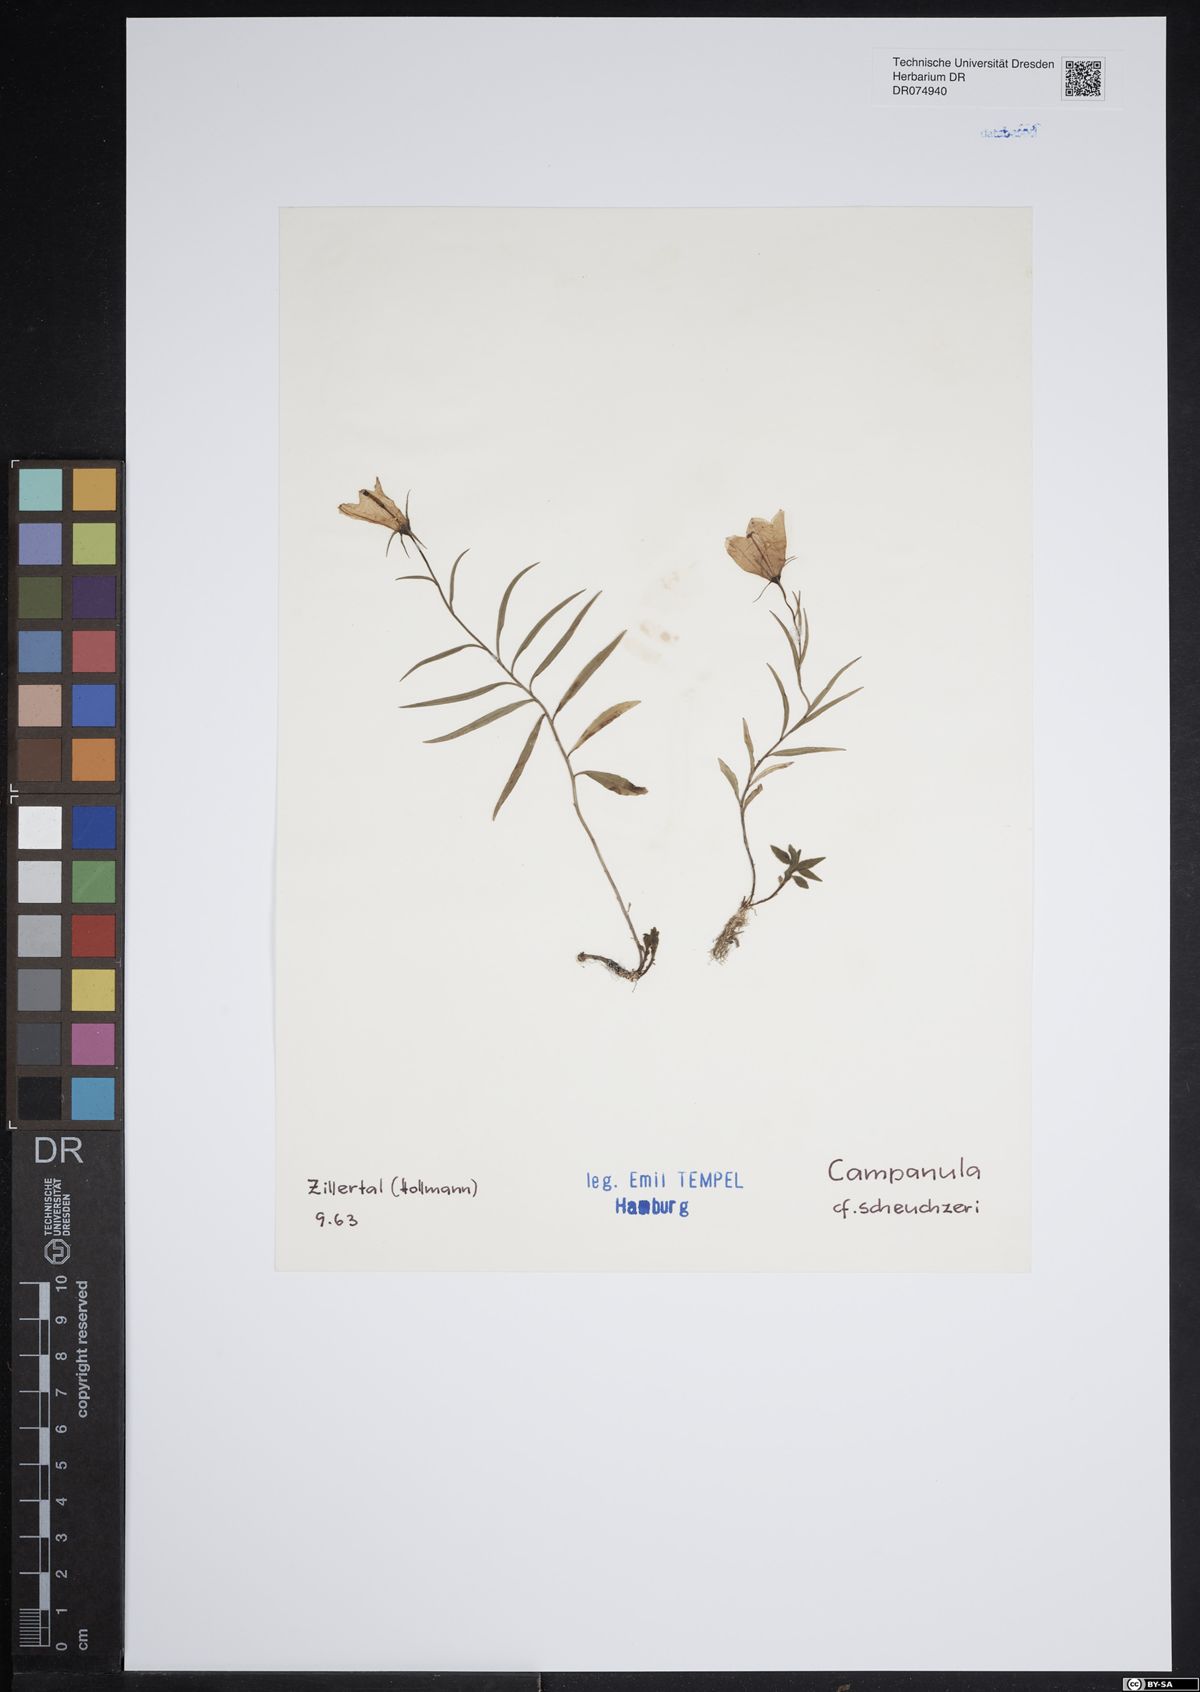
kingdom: Plantae
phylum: Tracheophyta
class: Magnoliopsida
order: Asterales
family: Campanulaceae
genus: Campanula
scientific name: Campanula scheuchzeri
